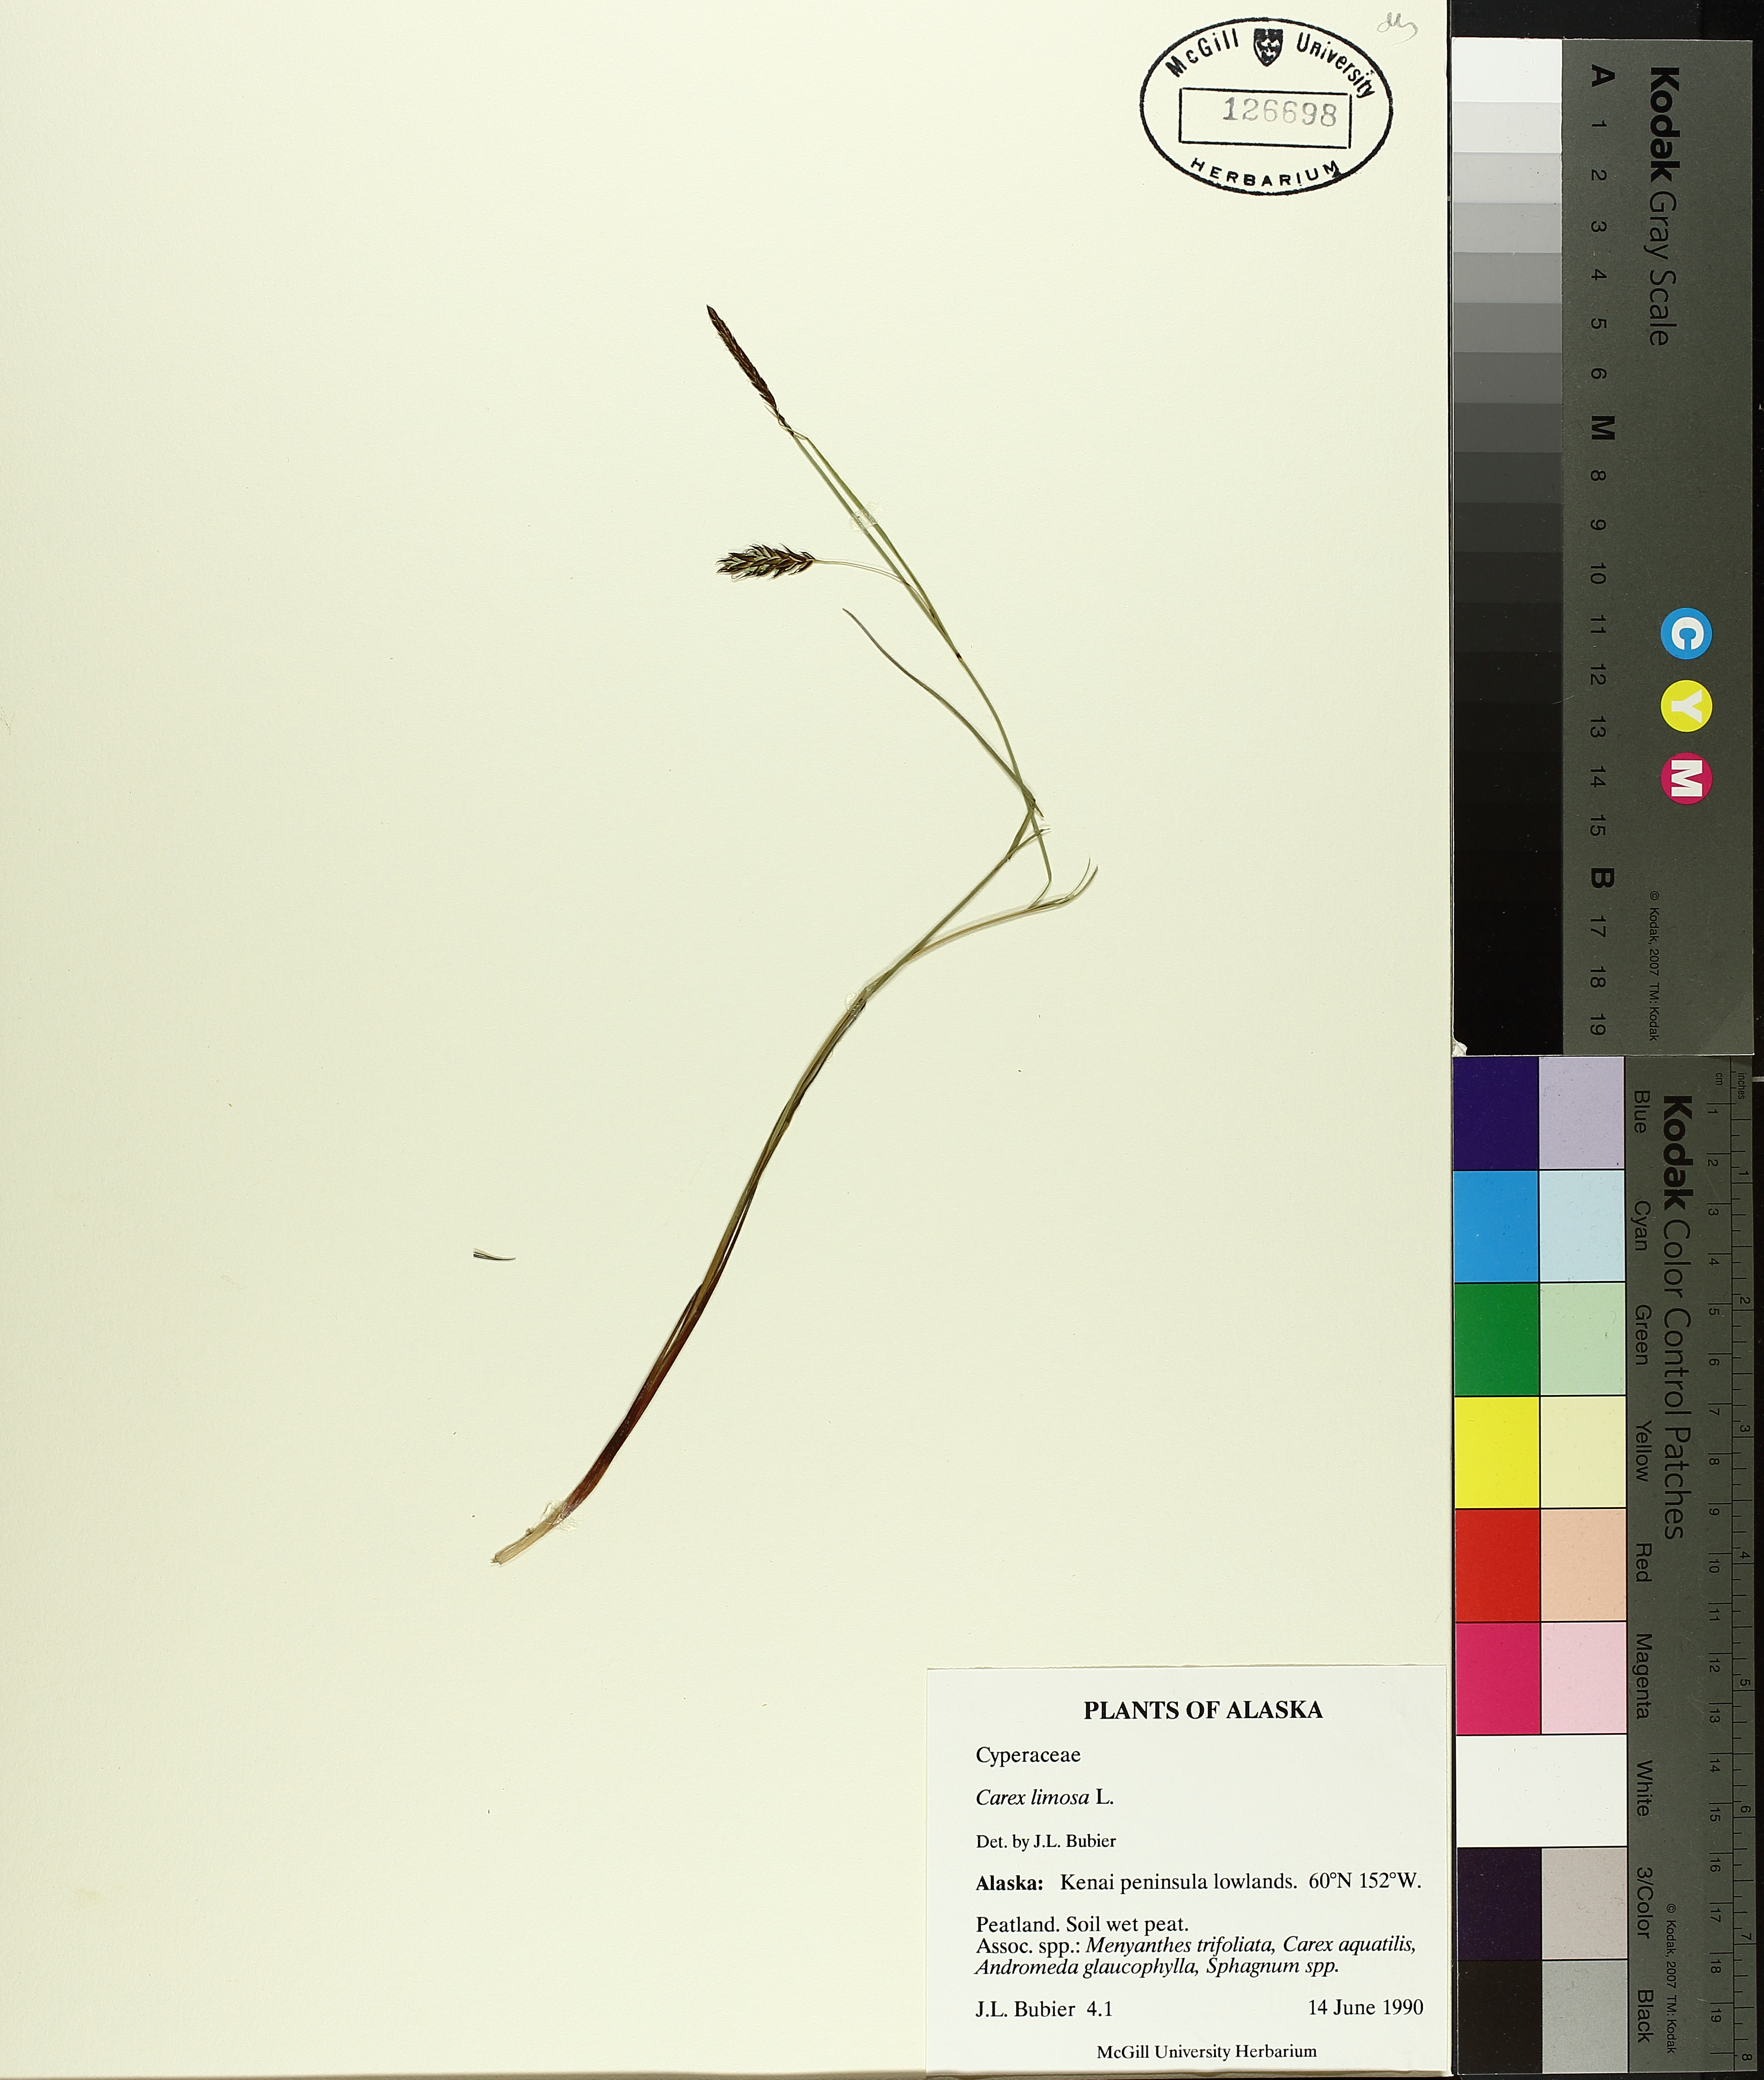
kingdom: Plantae
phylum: Tracheophyta
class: Liliopsida
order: Poales
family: Cyperaceae
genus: Carex
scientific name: Carex limosa
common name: Bog sedge
